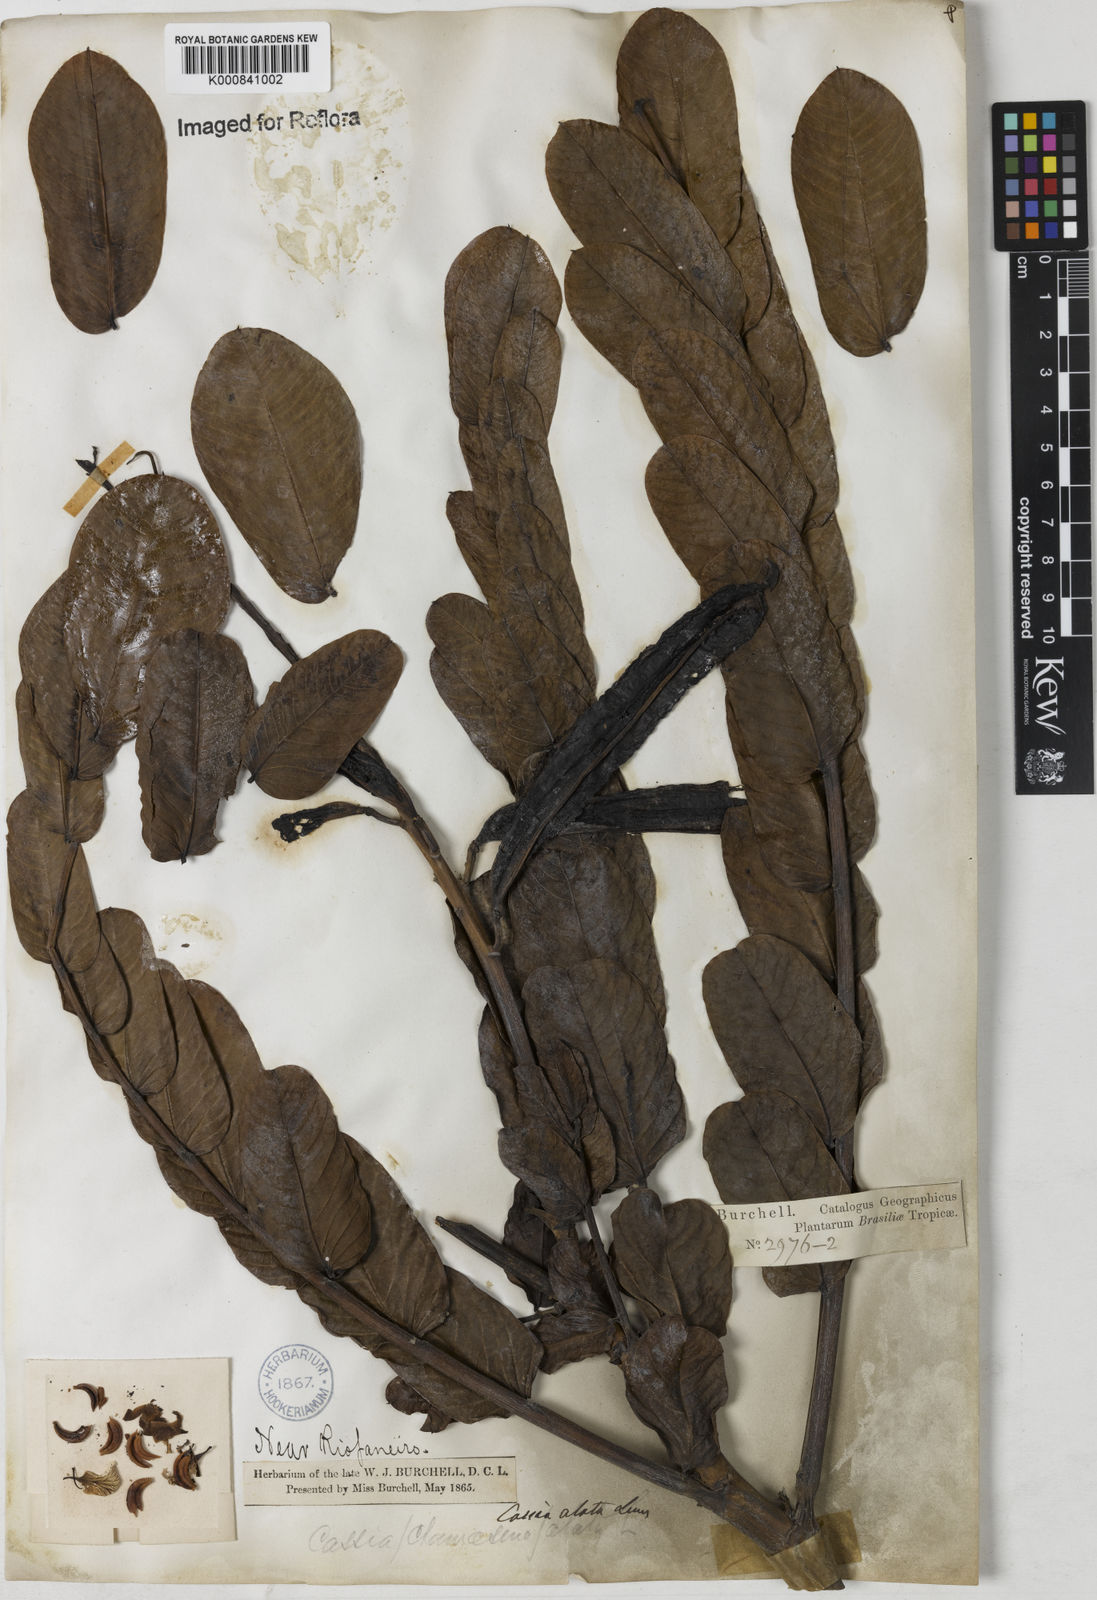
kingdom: Plantae
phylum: Tracheophyta
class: Magnoliopsida
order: Fabales
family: Fabaceae
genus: Senna
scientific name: Senna alata
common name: Emperor's candlesticks
